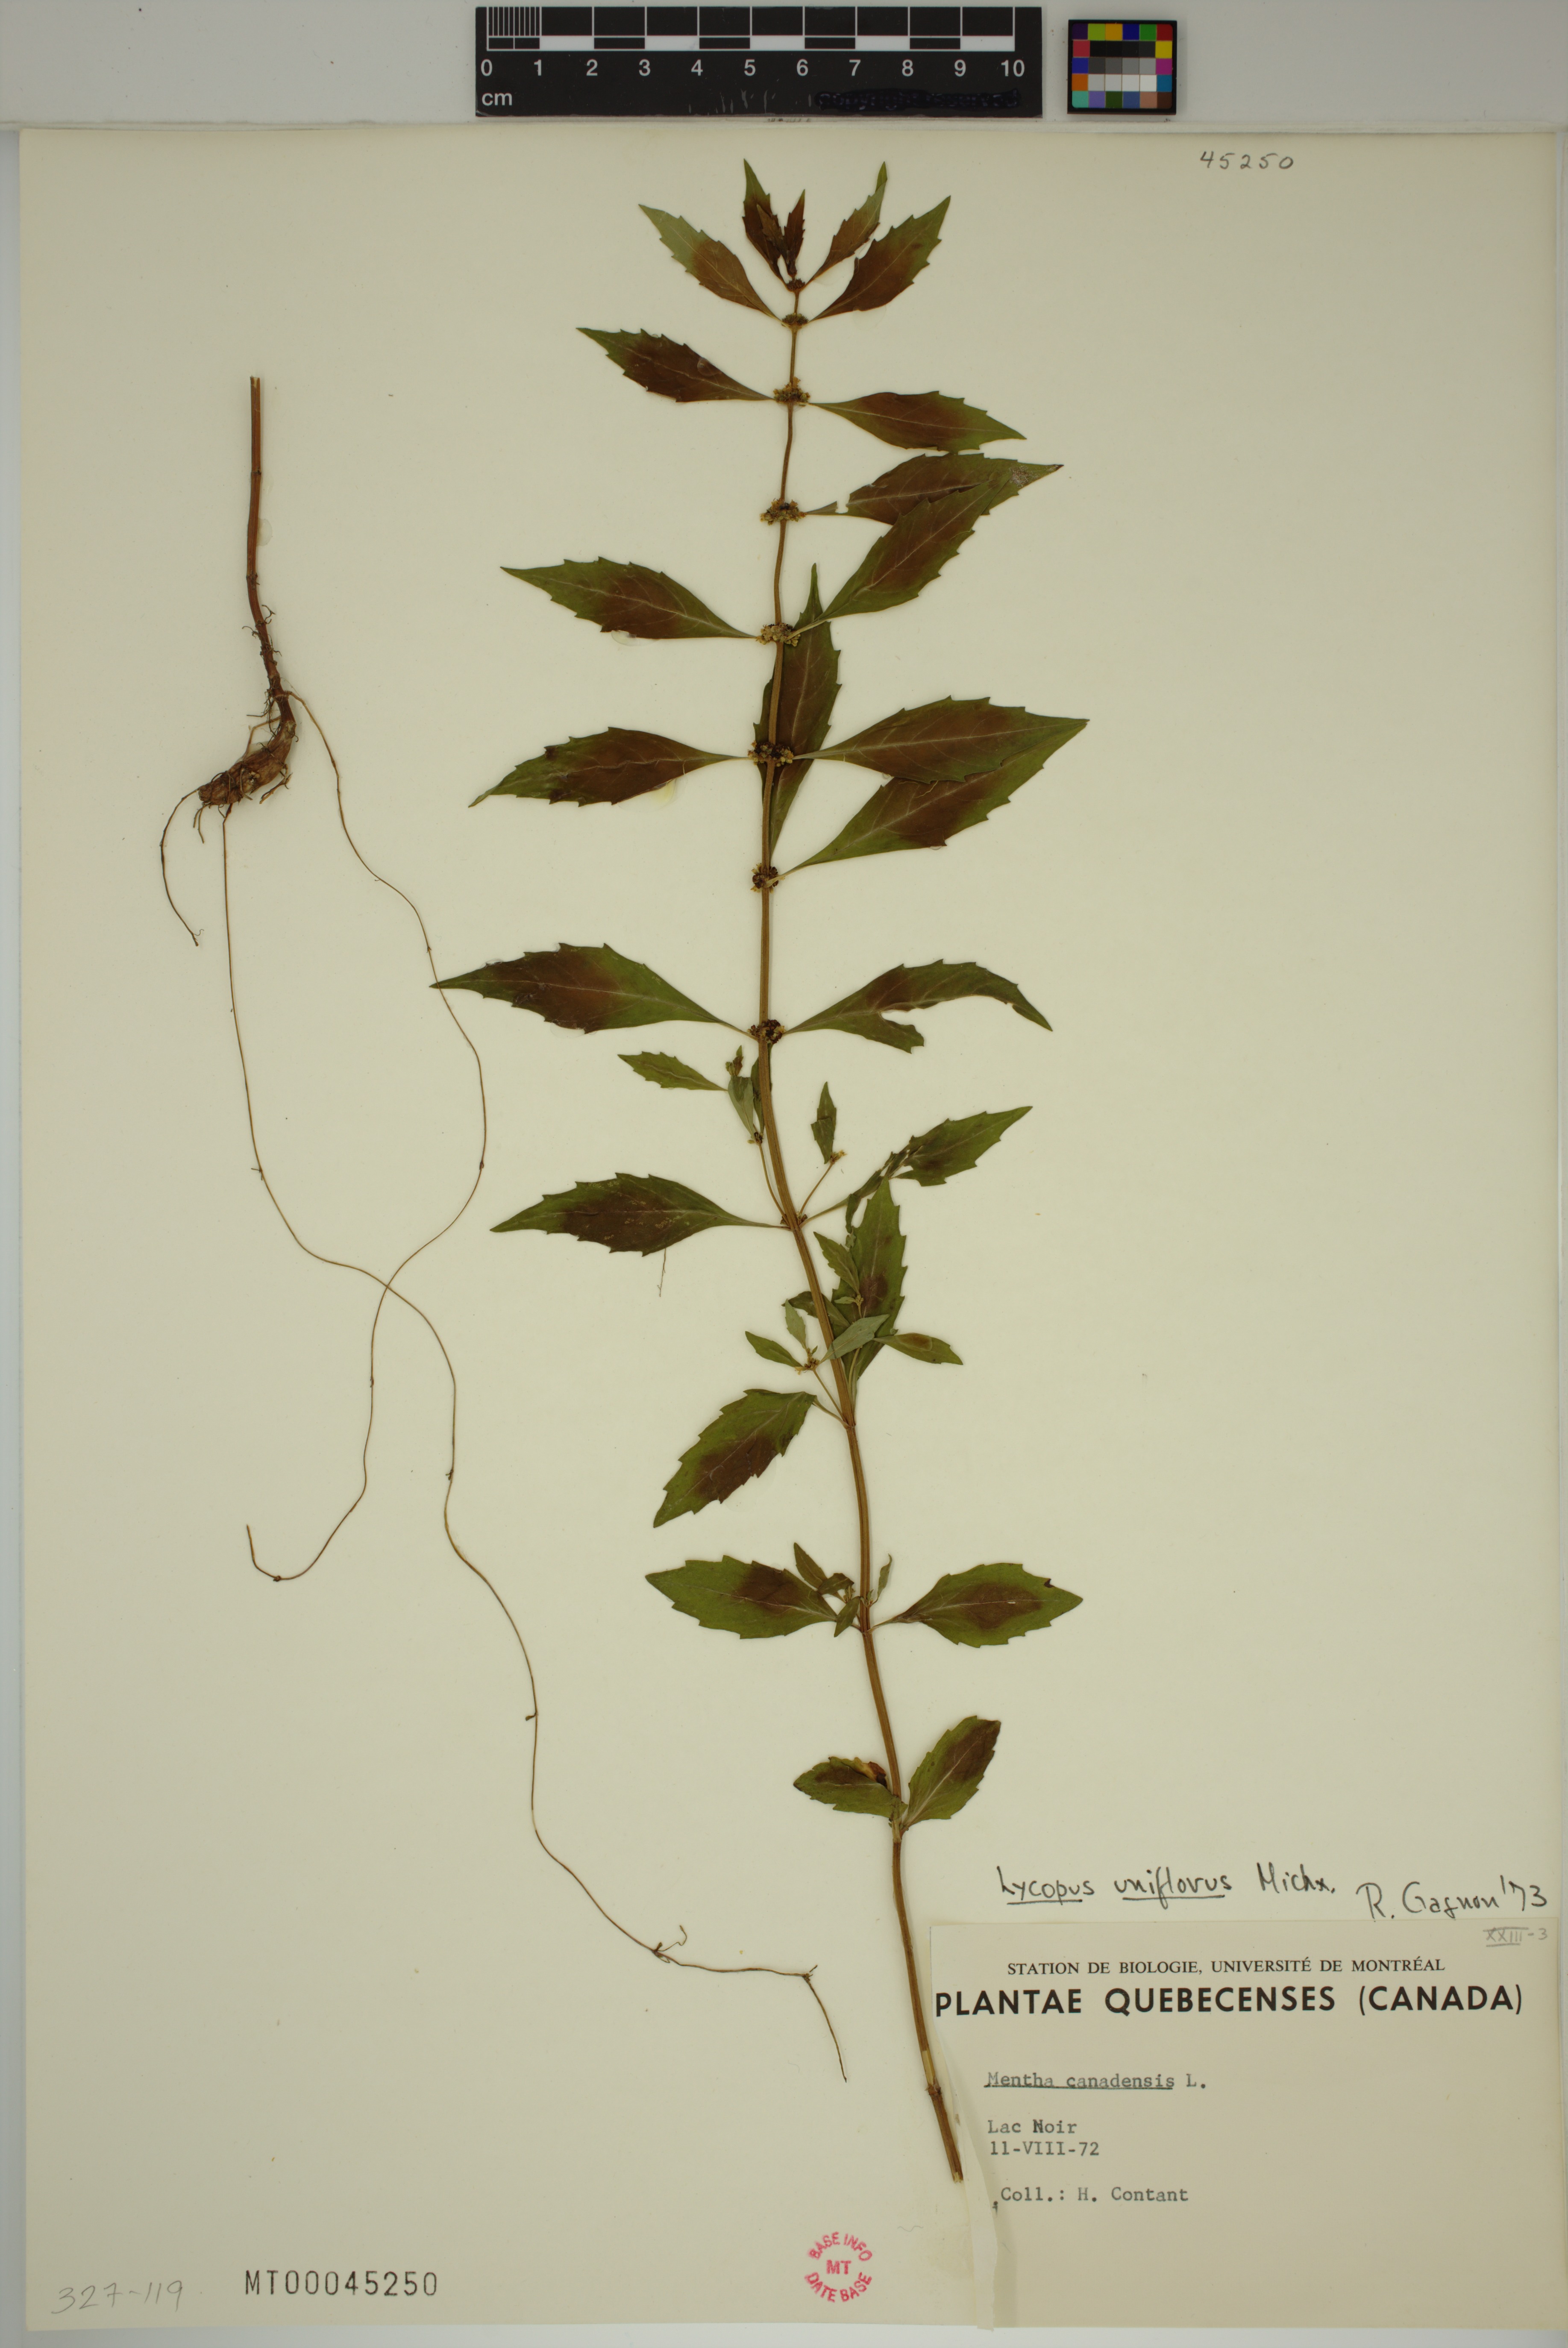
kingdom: Plantae
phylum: Tracheophyta
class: Magnoliopsida
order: Lamiales
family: Lamiaceae
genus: Lycopus
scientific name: Lycopus uniflorus
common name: Northern bugleweed
